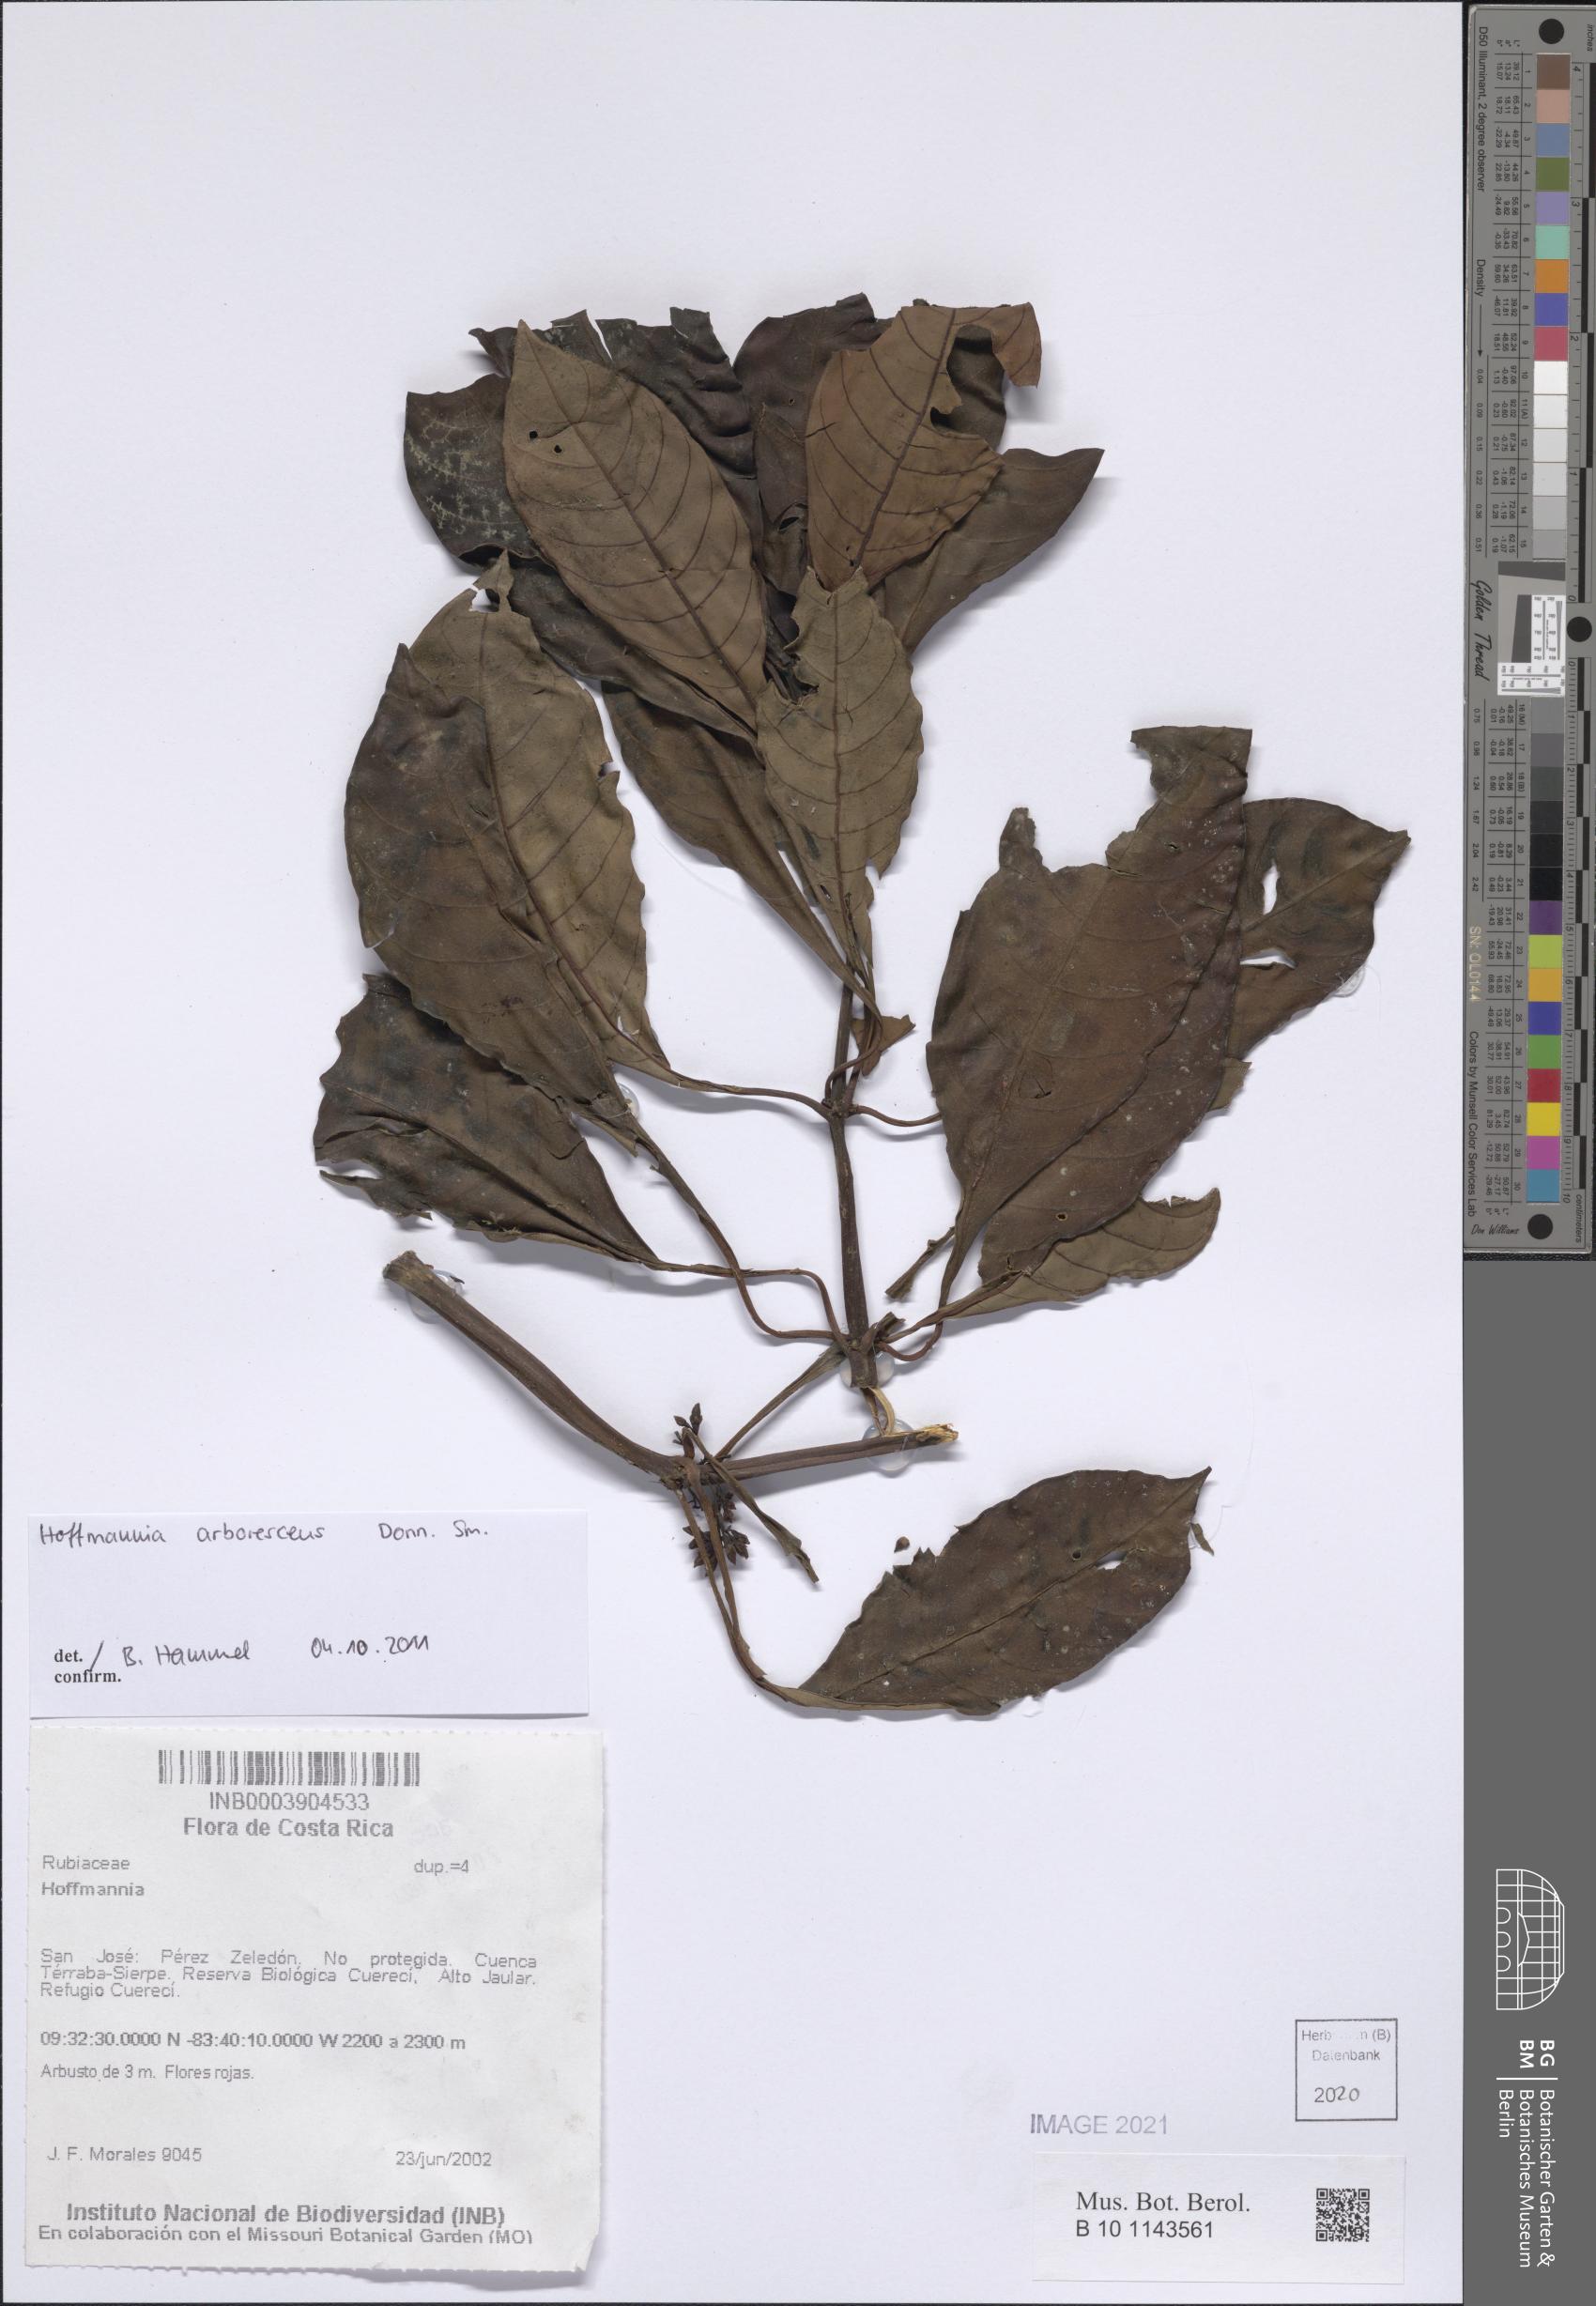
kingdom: Plantae
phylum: Tracheophyta
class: Magnoliopsida
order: Gentianales
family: Rubiaceae
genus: Hoffmannia
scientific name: Hoffmannia arborescens
